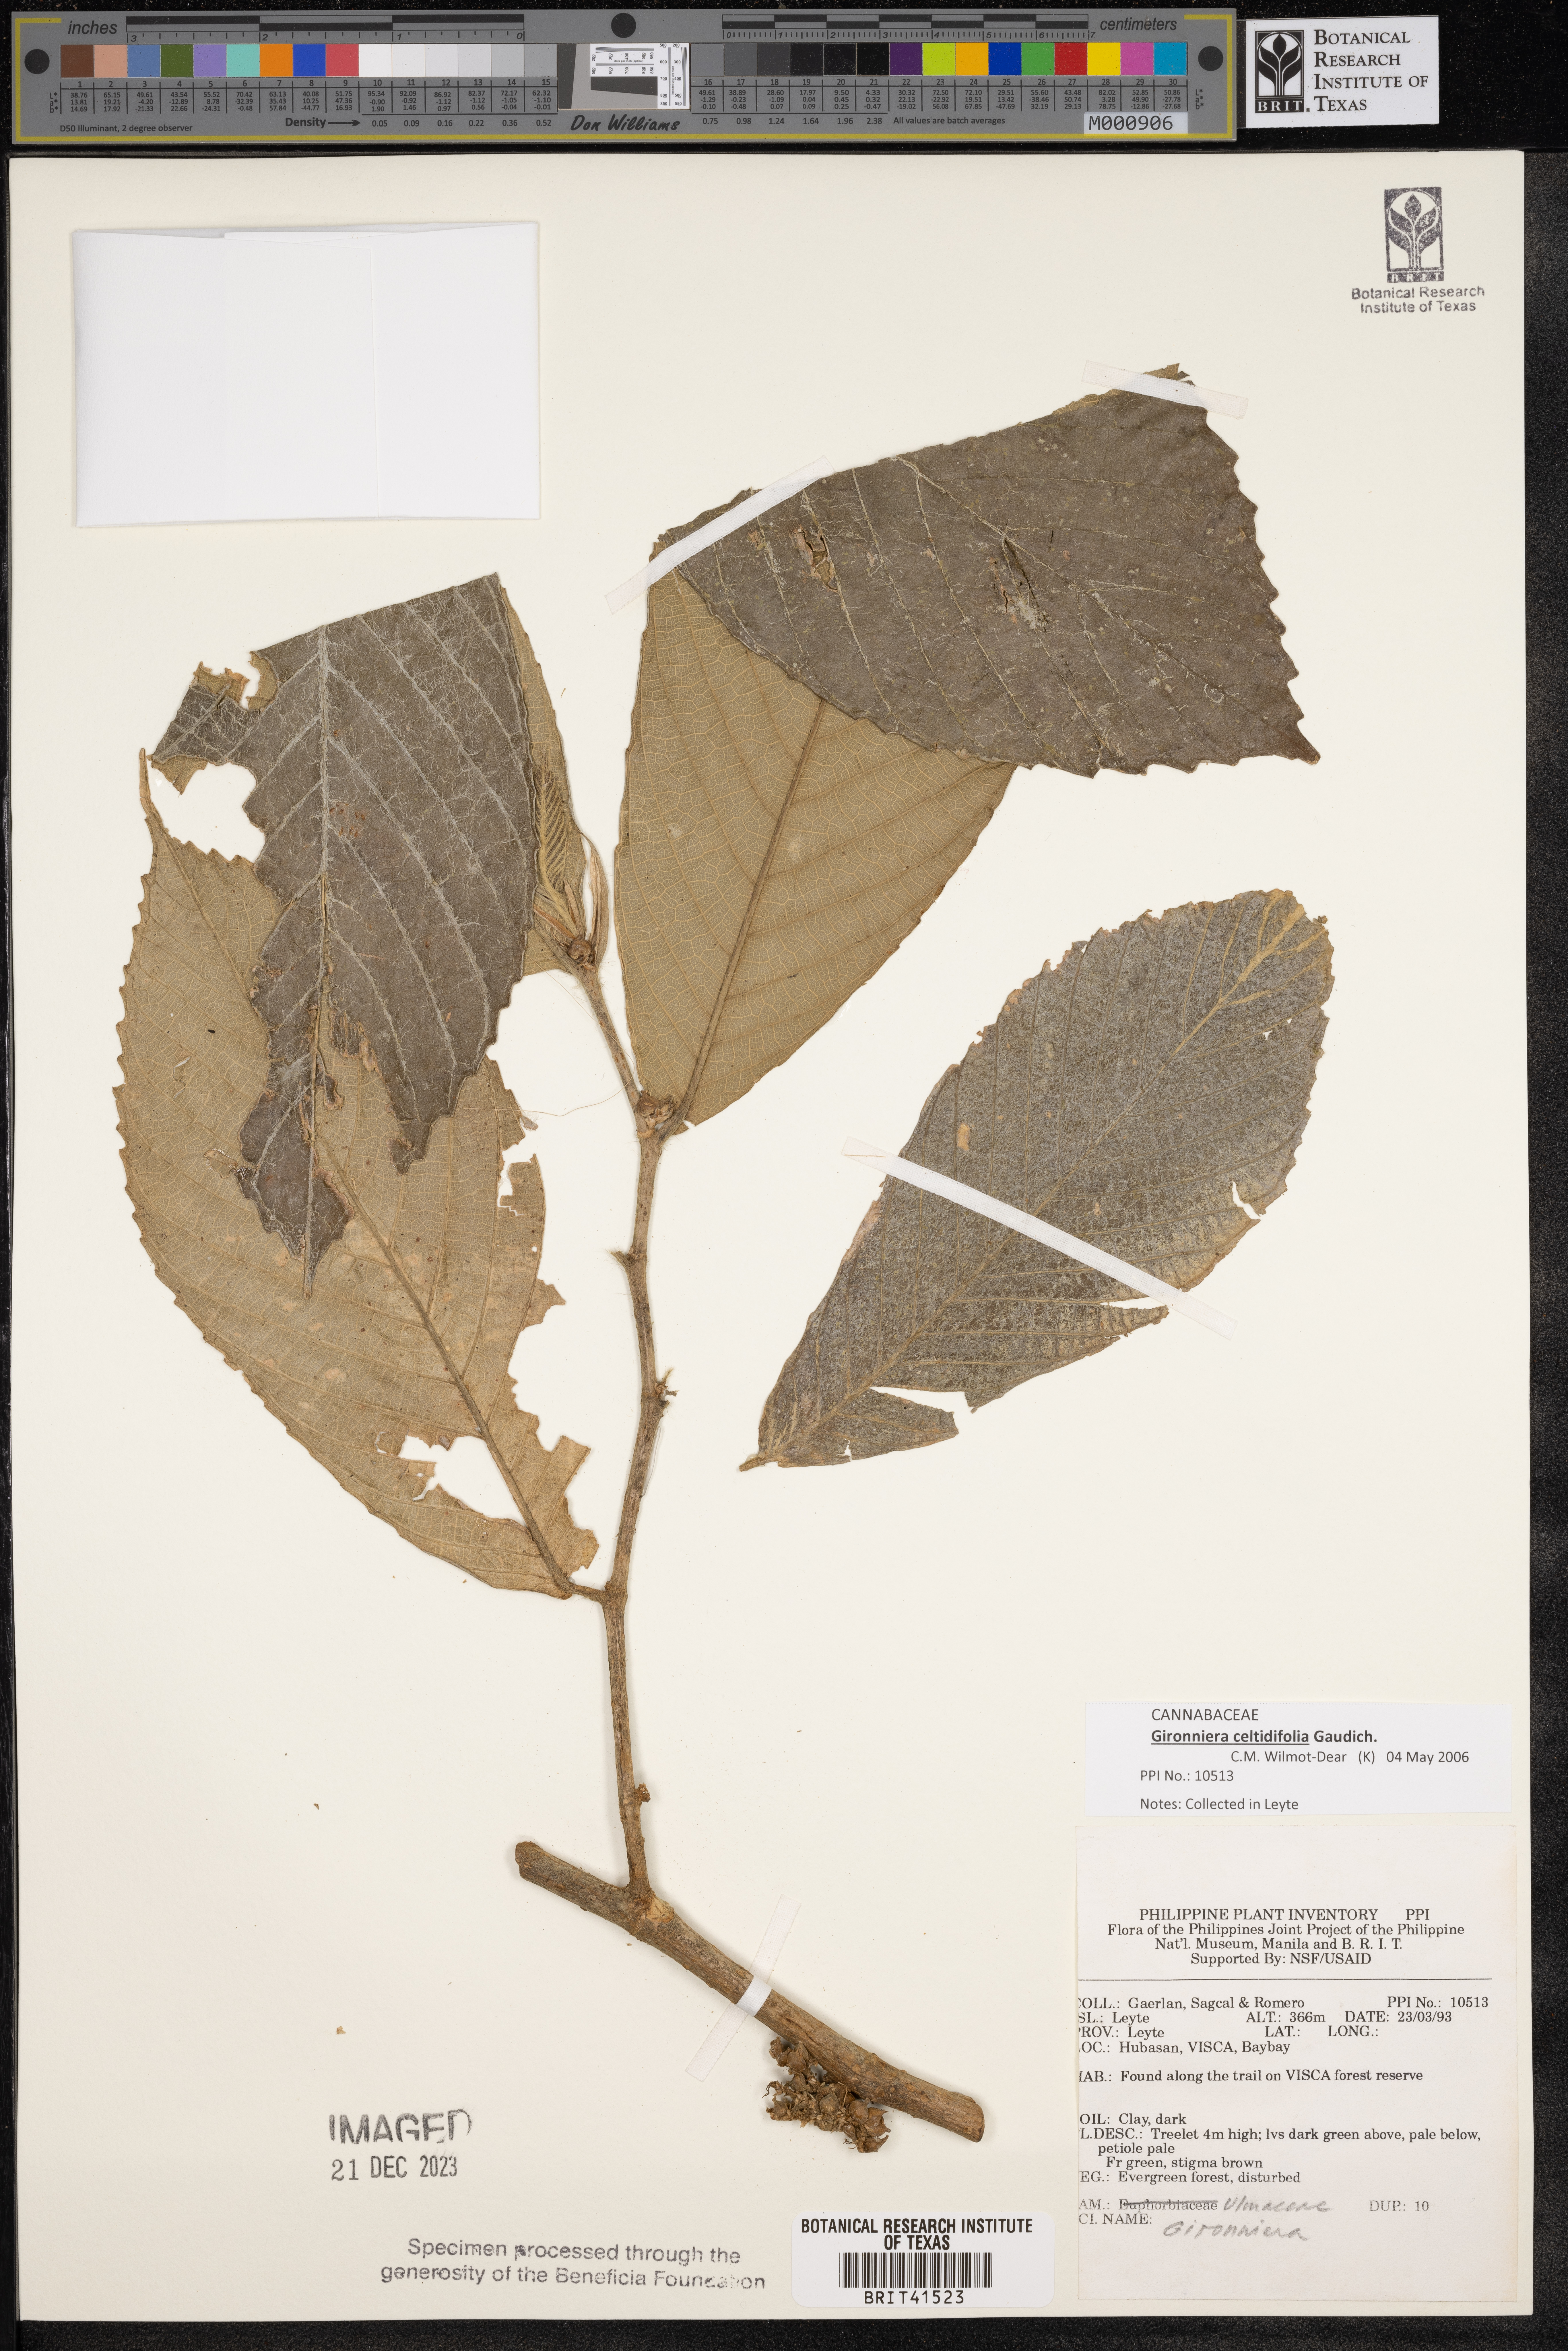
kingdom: Plantae
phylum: Tracheophyta
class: Magnoliopsida
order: Rosales
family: Cannabaceae
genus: Gironniera
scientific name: Gironniera
